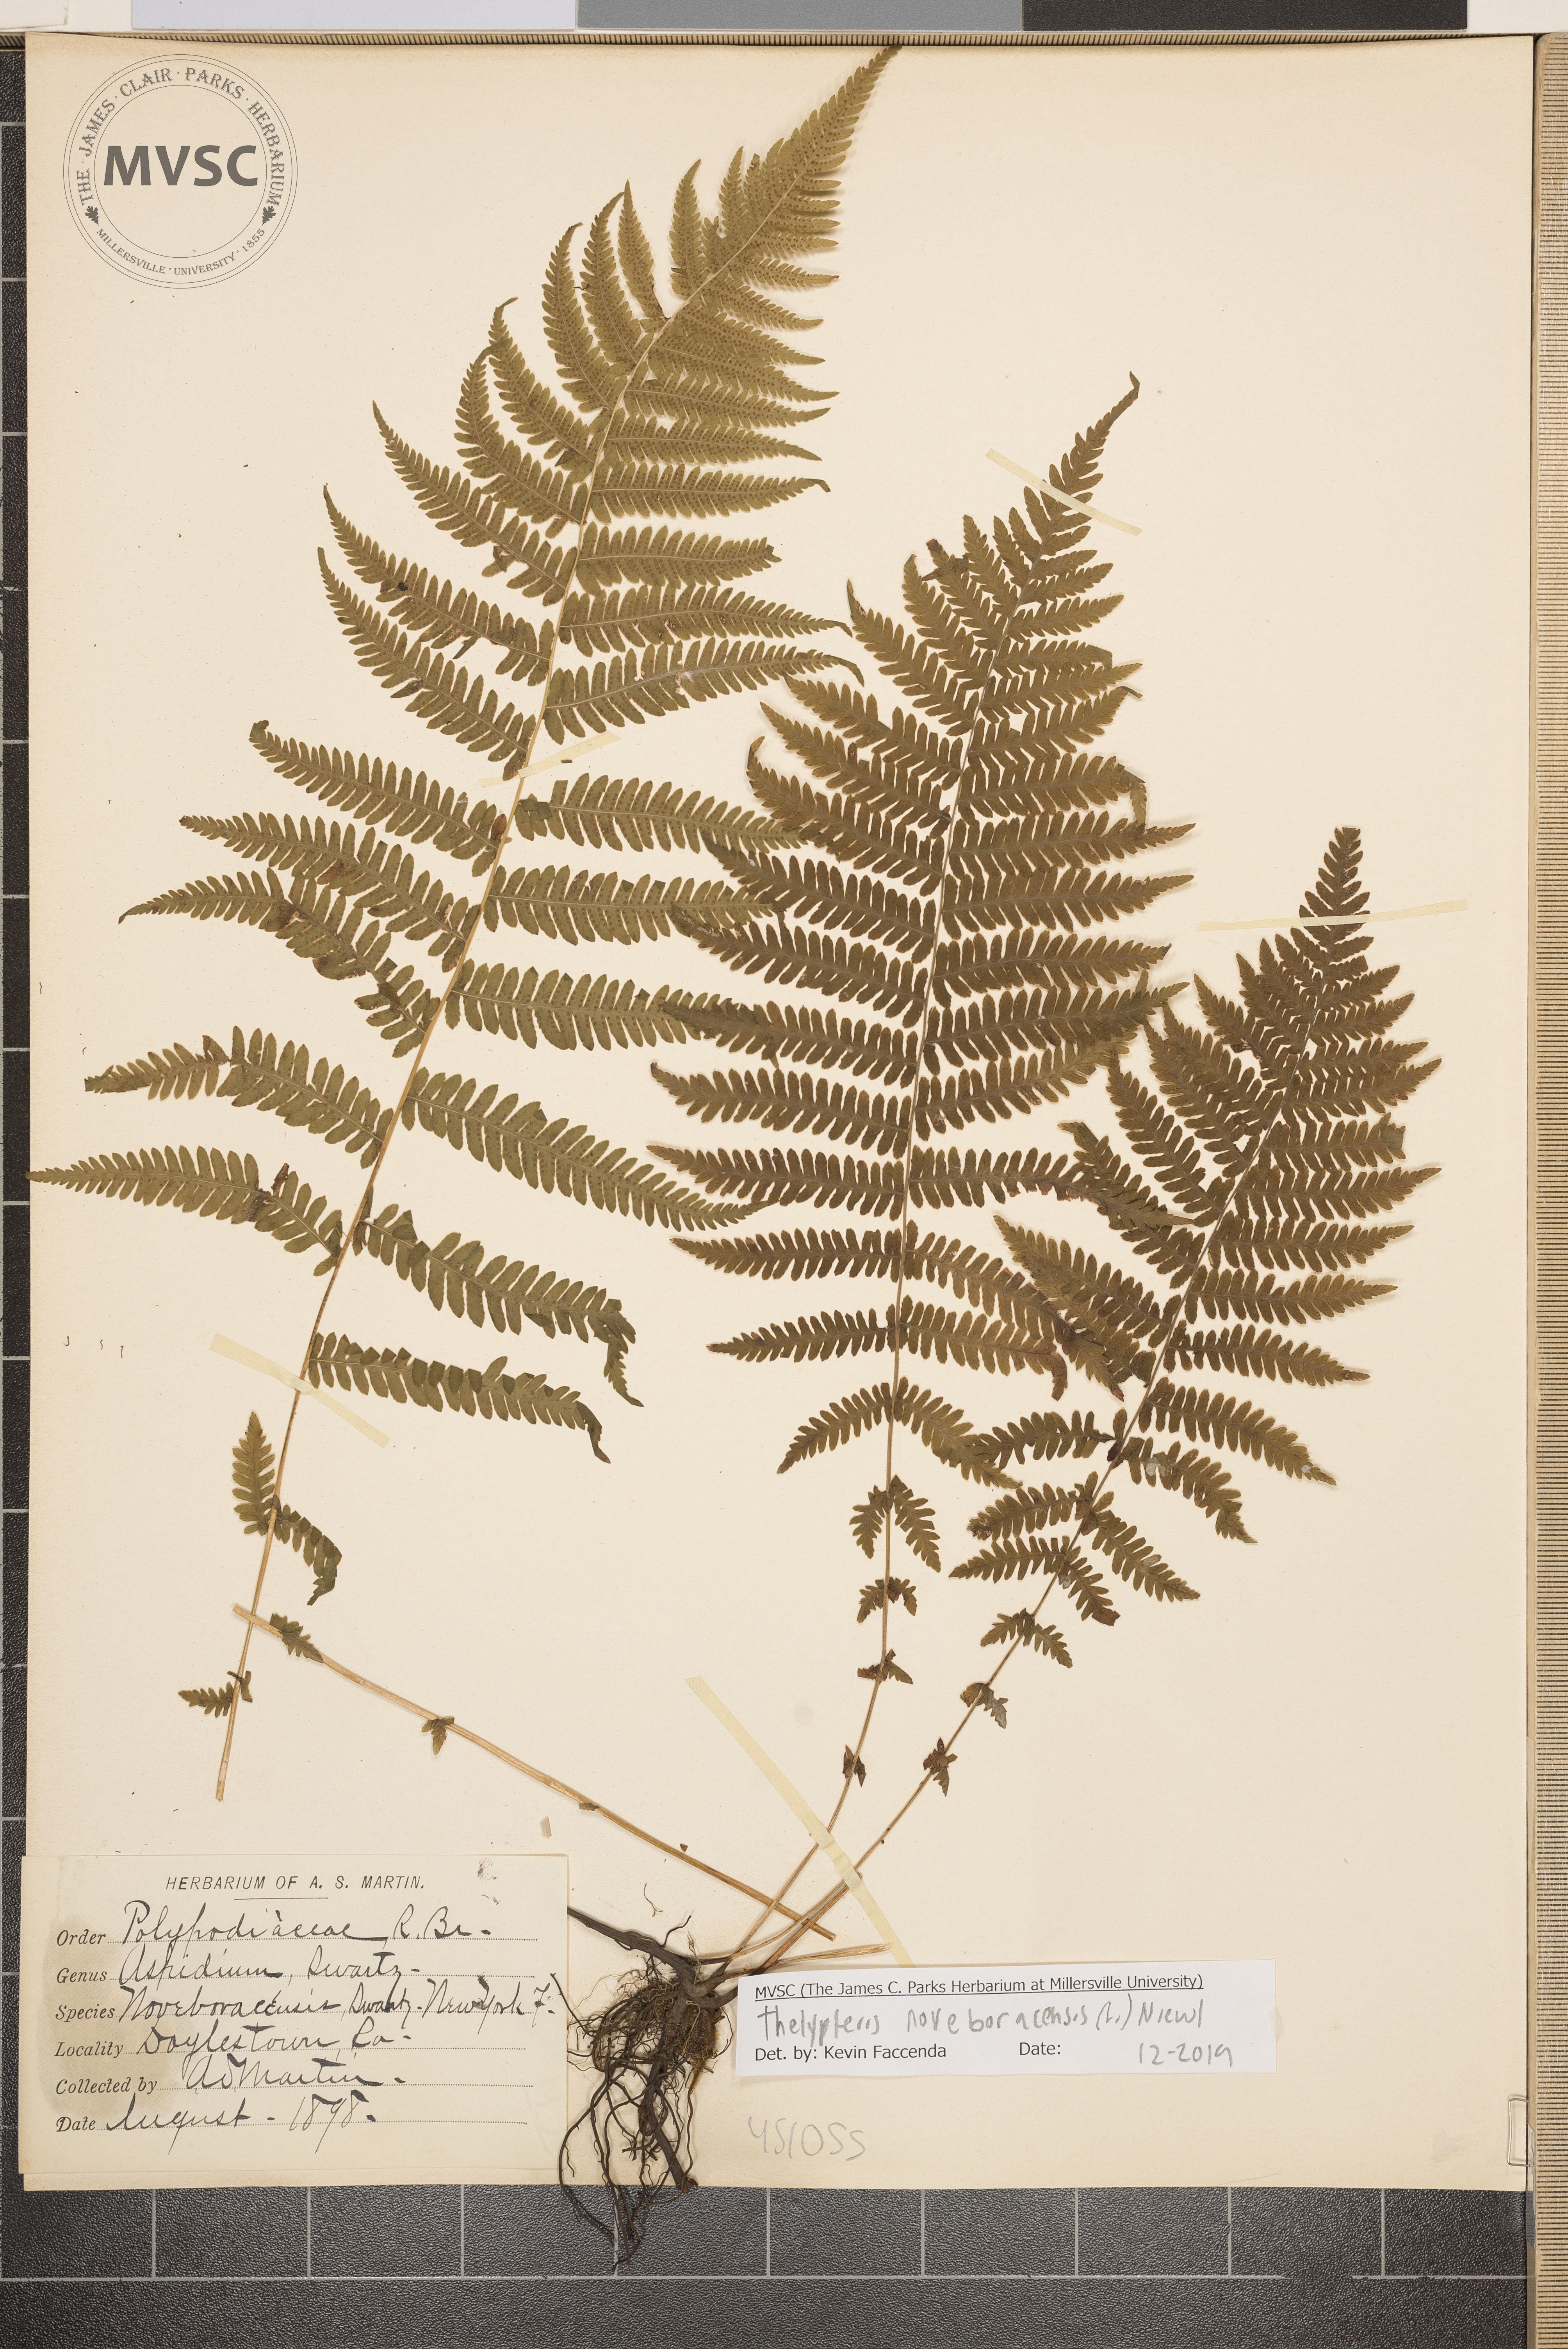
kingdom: Plantae
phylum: Tracheophyta
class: Polypodiopsida
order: Polypodiales
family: Thelypteridaceae
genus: Amauropelta
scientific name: Amauropelta noveboracensis
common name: New York Fern
